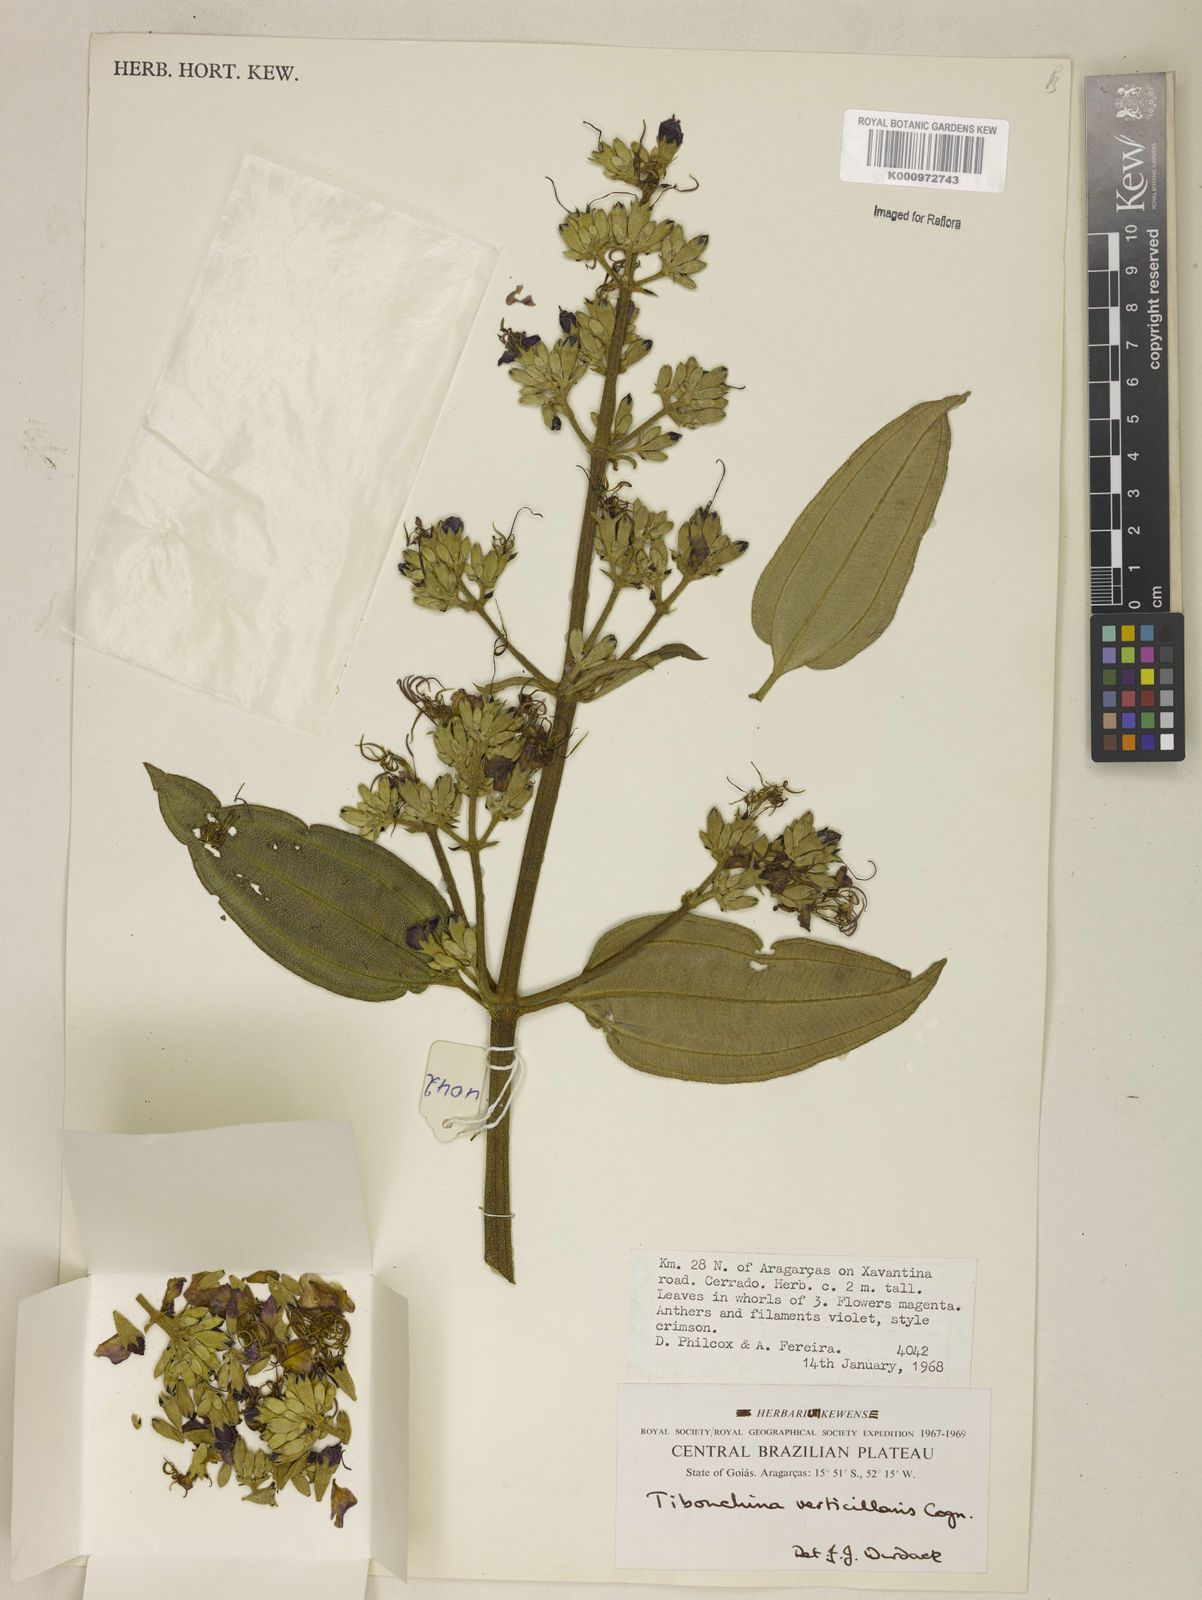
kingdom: Plantae
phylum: Tracheophyta
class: Magnoliopsida
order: Myrtales
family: Melastomataceae
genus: Tibouchina
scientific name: Tibouchina verticillaris
